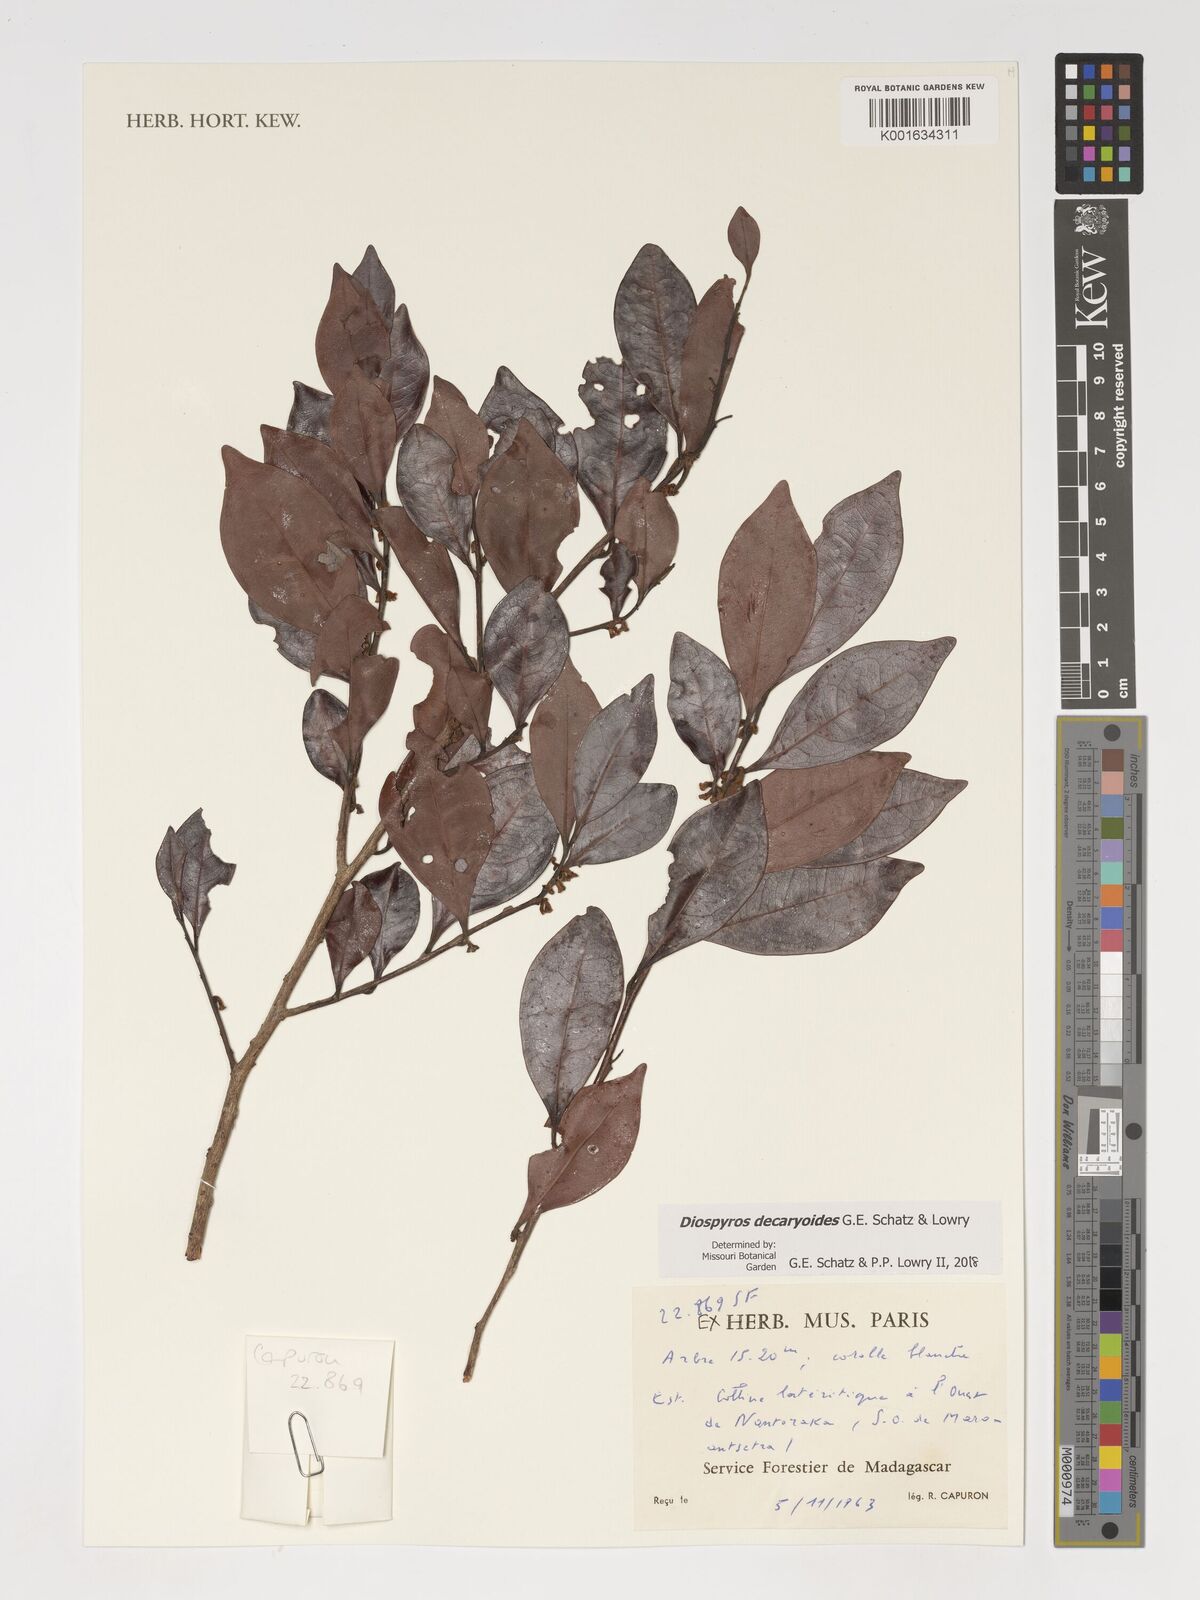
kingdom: Plantae
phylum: Tracheophyta
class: Magnoliopsida
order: Ericales
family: Ebenaceae
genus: Diospyros
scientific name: Diospyros decaryoides
